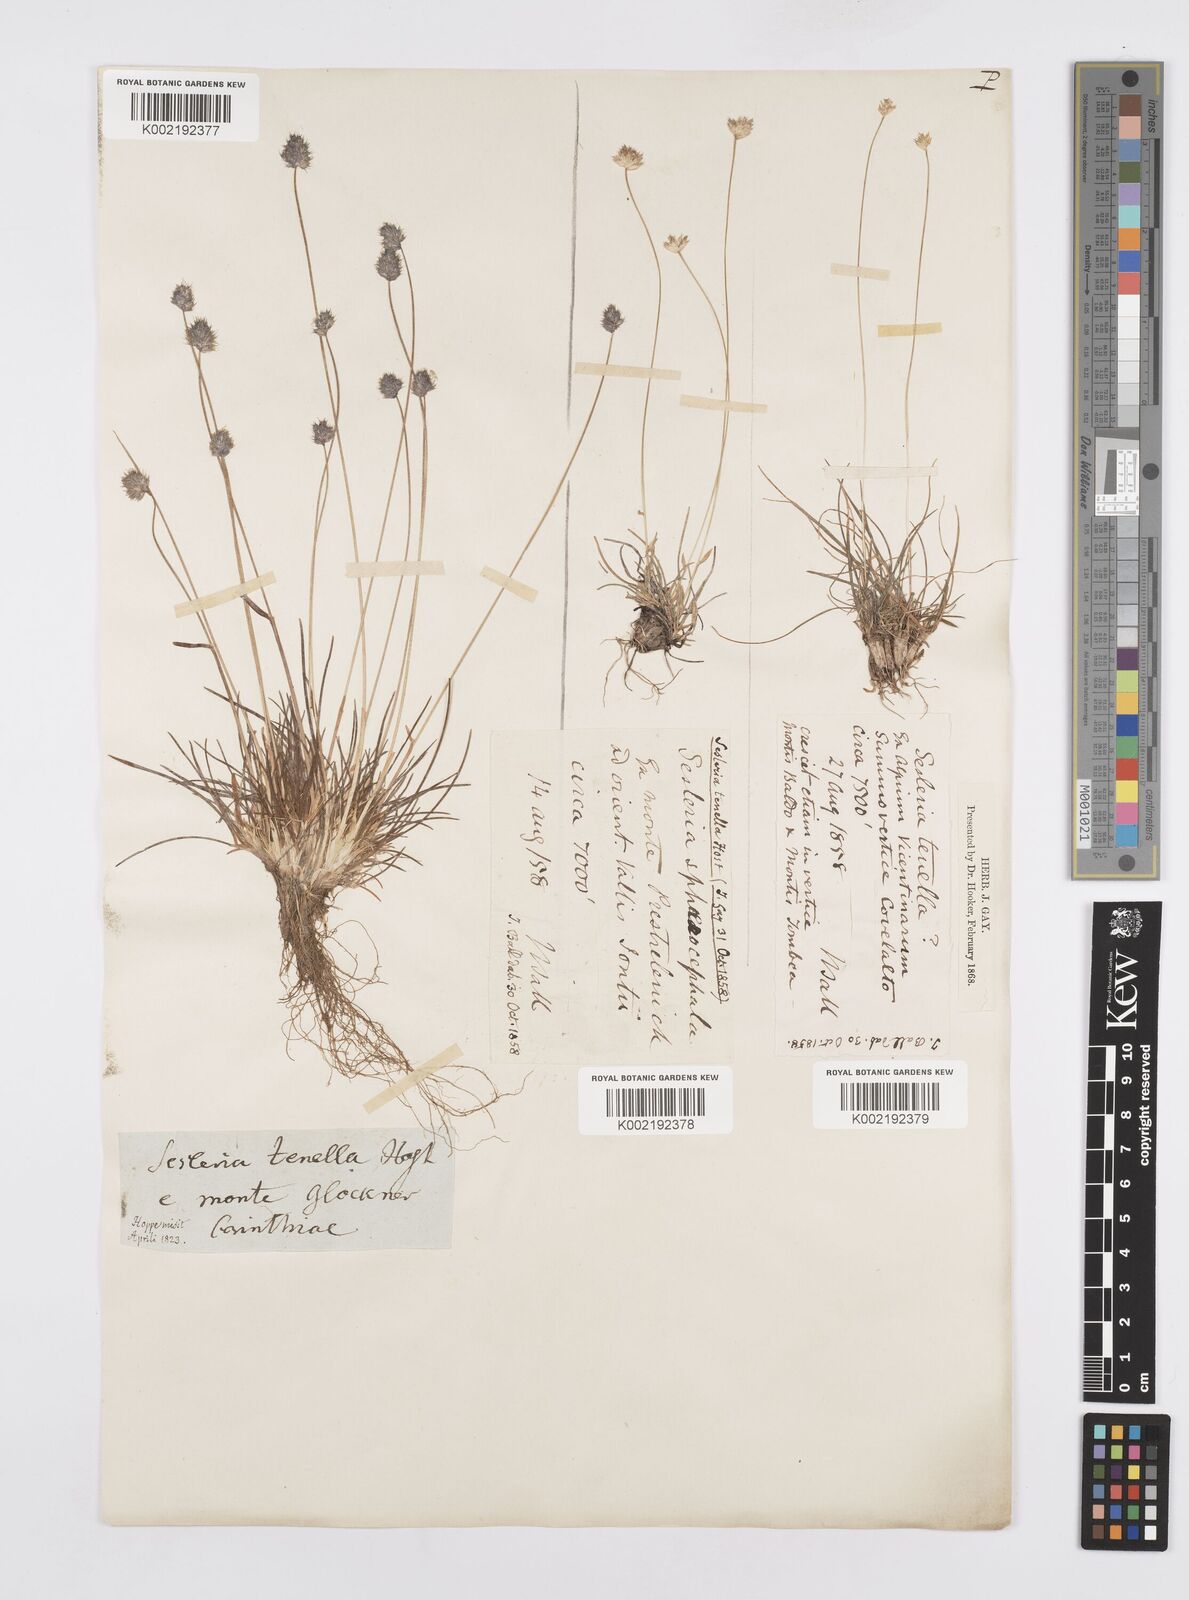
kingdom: Plantae
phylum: Tracheophyta
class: Liliopsida
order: Poales
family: Poaceae
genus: Psilathera
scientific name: Psilathera ovata
